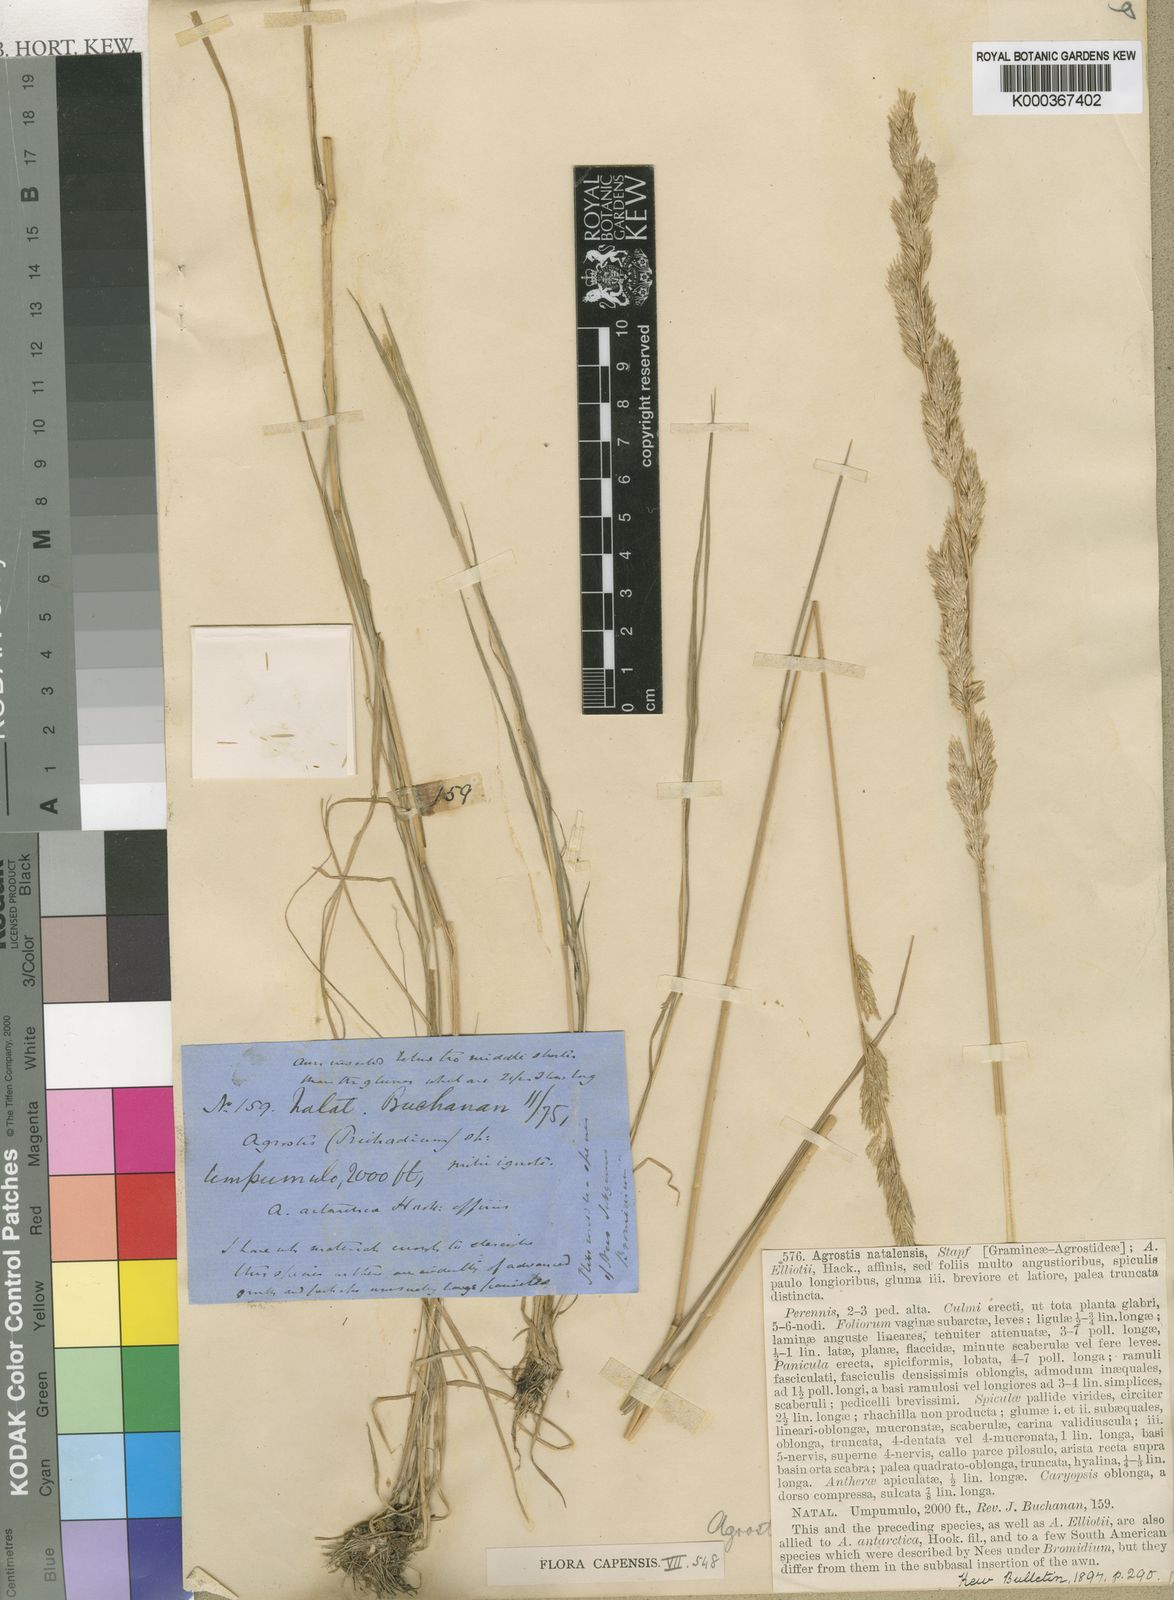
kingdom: Plantae
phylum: Tracheophyta
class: Liliopsida
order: Poales
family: Poaceae
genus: Agrostis
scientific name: Agrostis continuata
